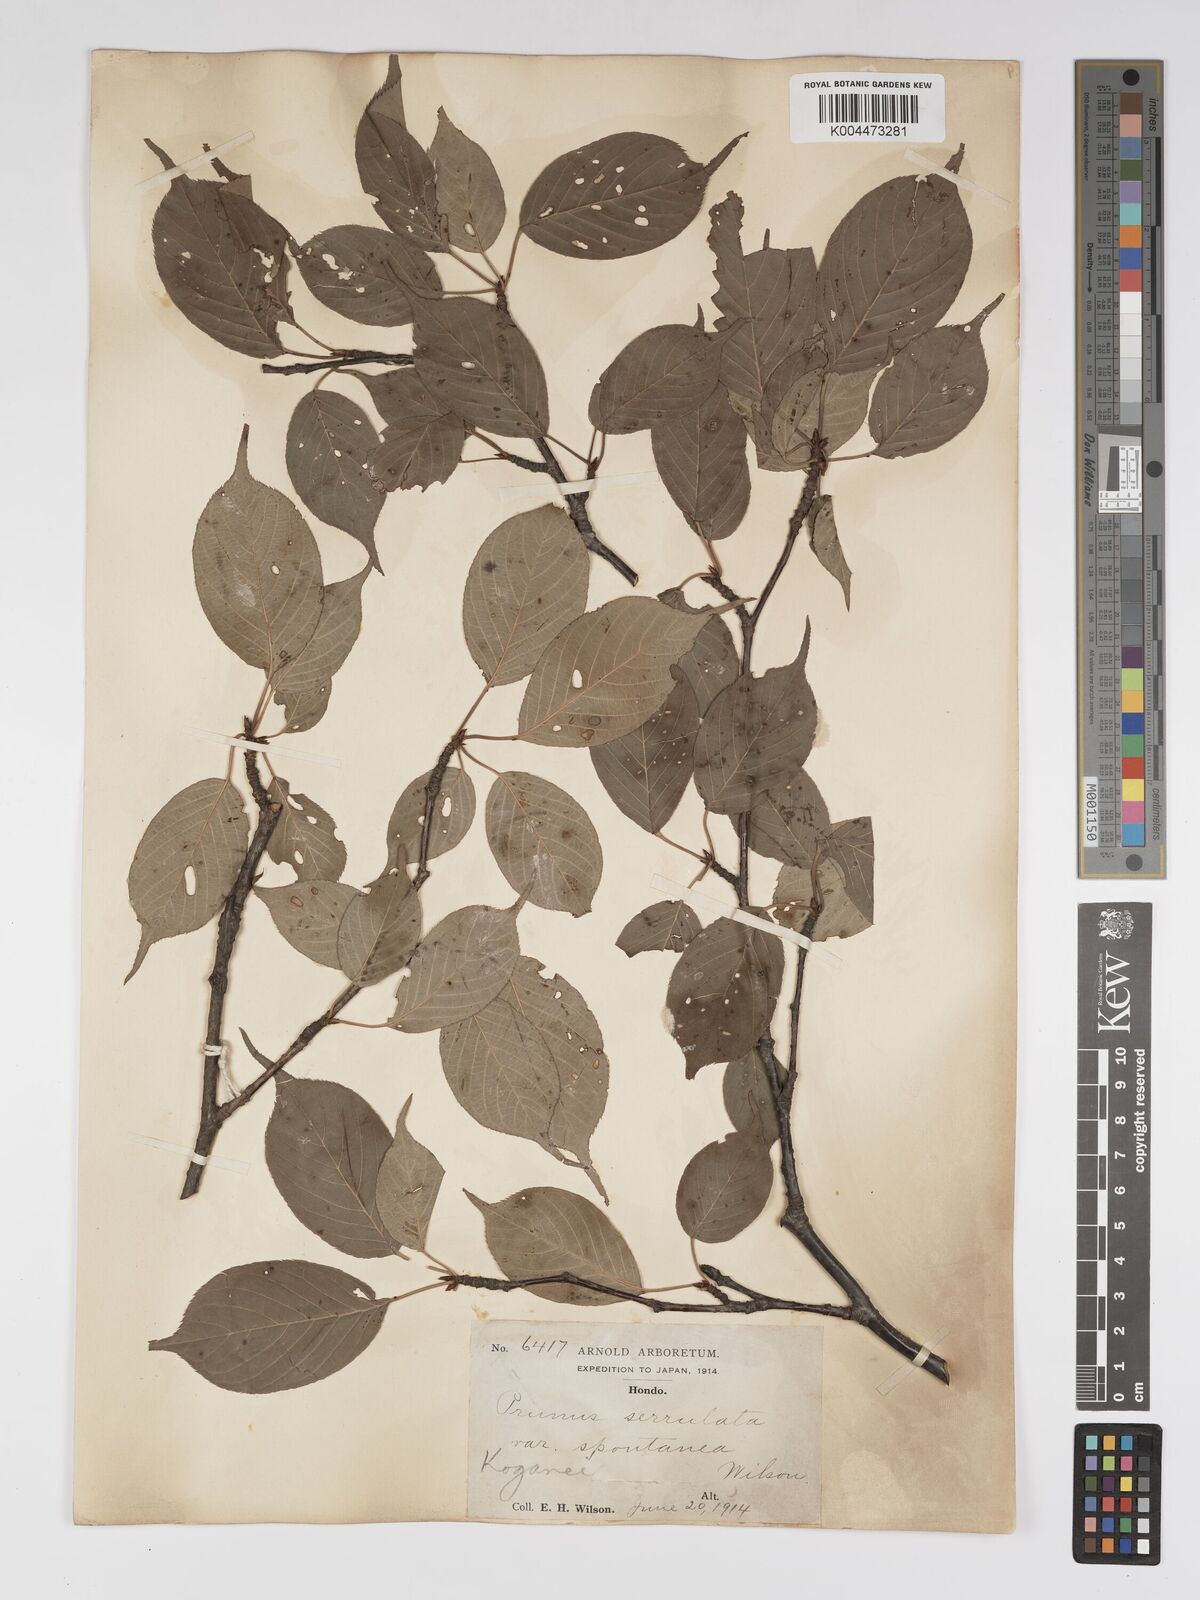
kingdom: Plantae
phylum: Tracheophyta
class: Magnoliopsida
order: Rosales
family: Rosaceae
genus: Prunus
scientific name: Prunus serrulata
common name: Japanese cherry
